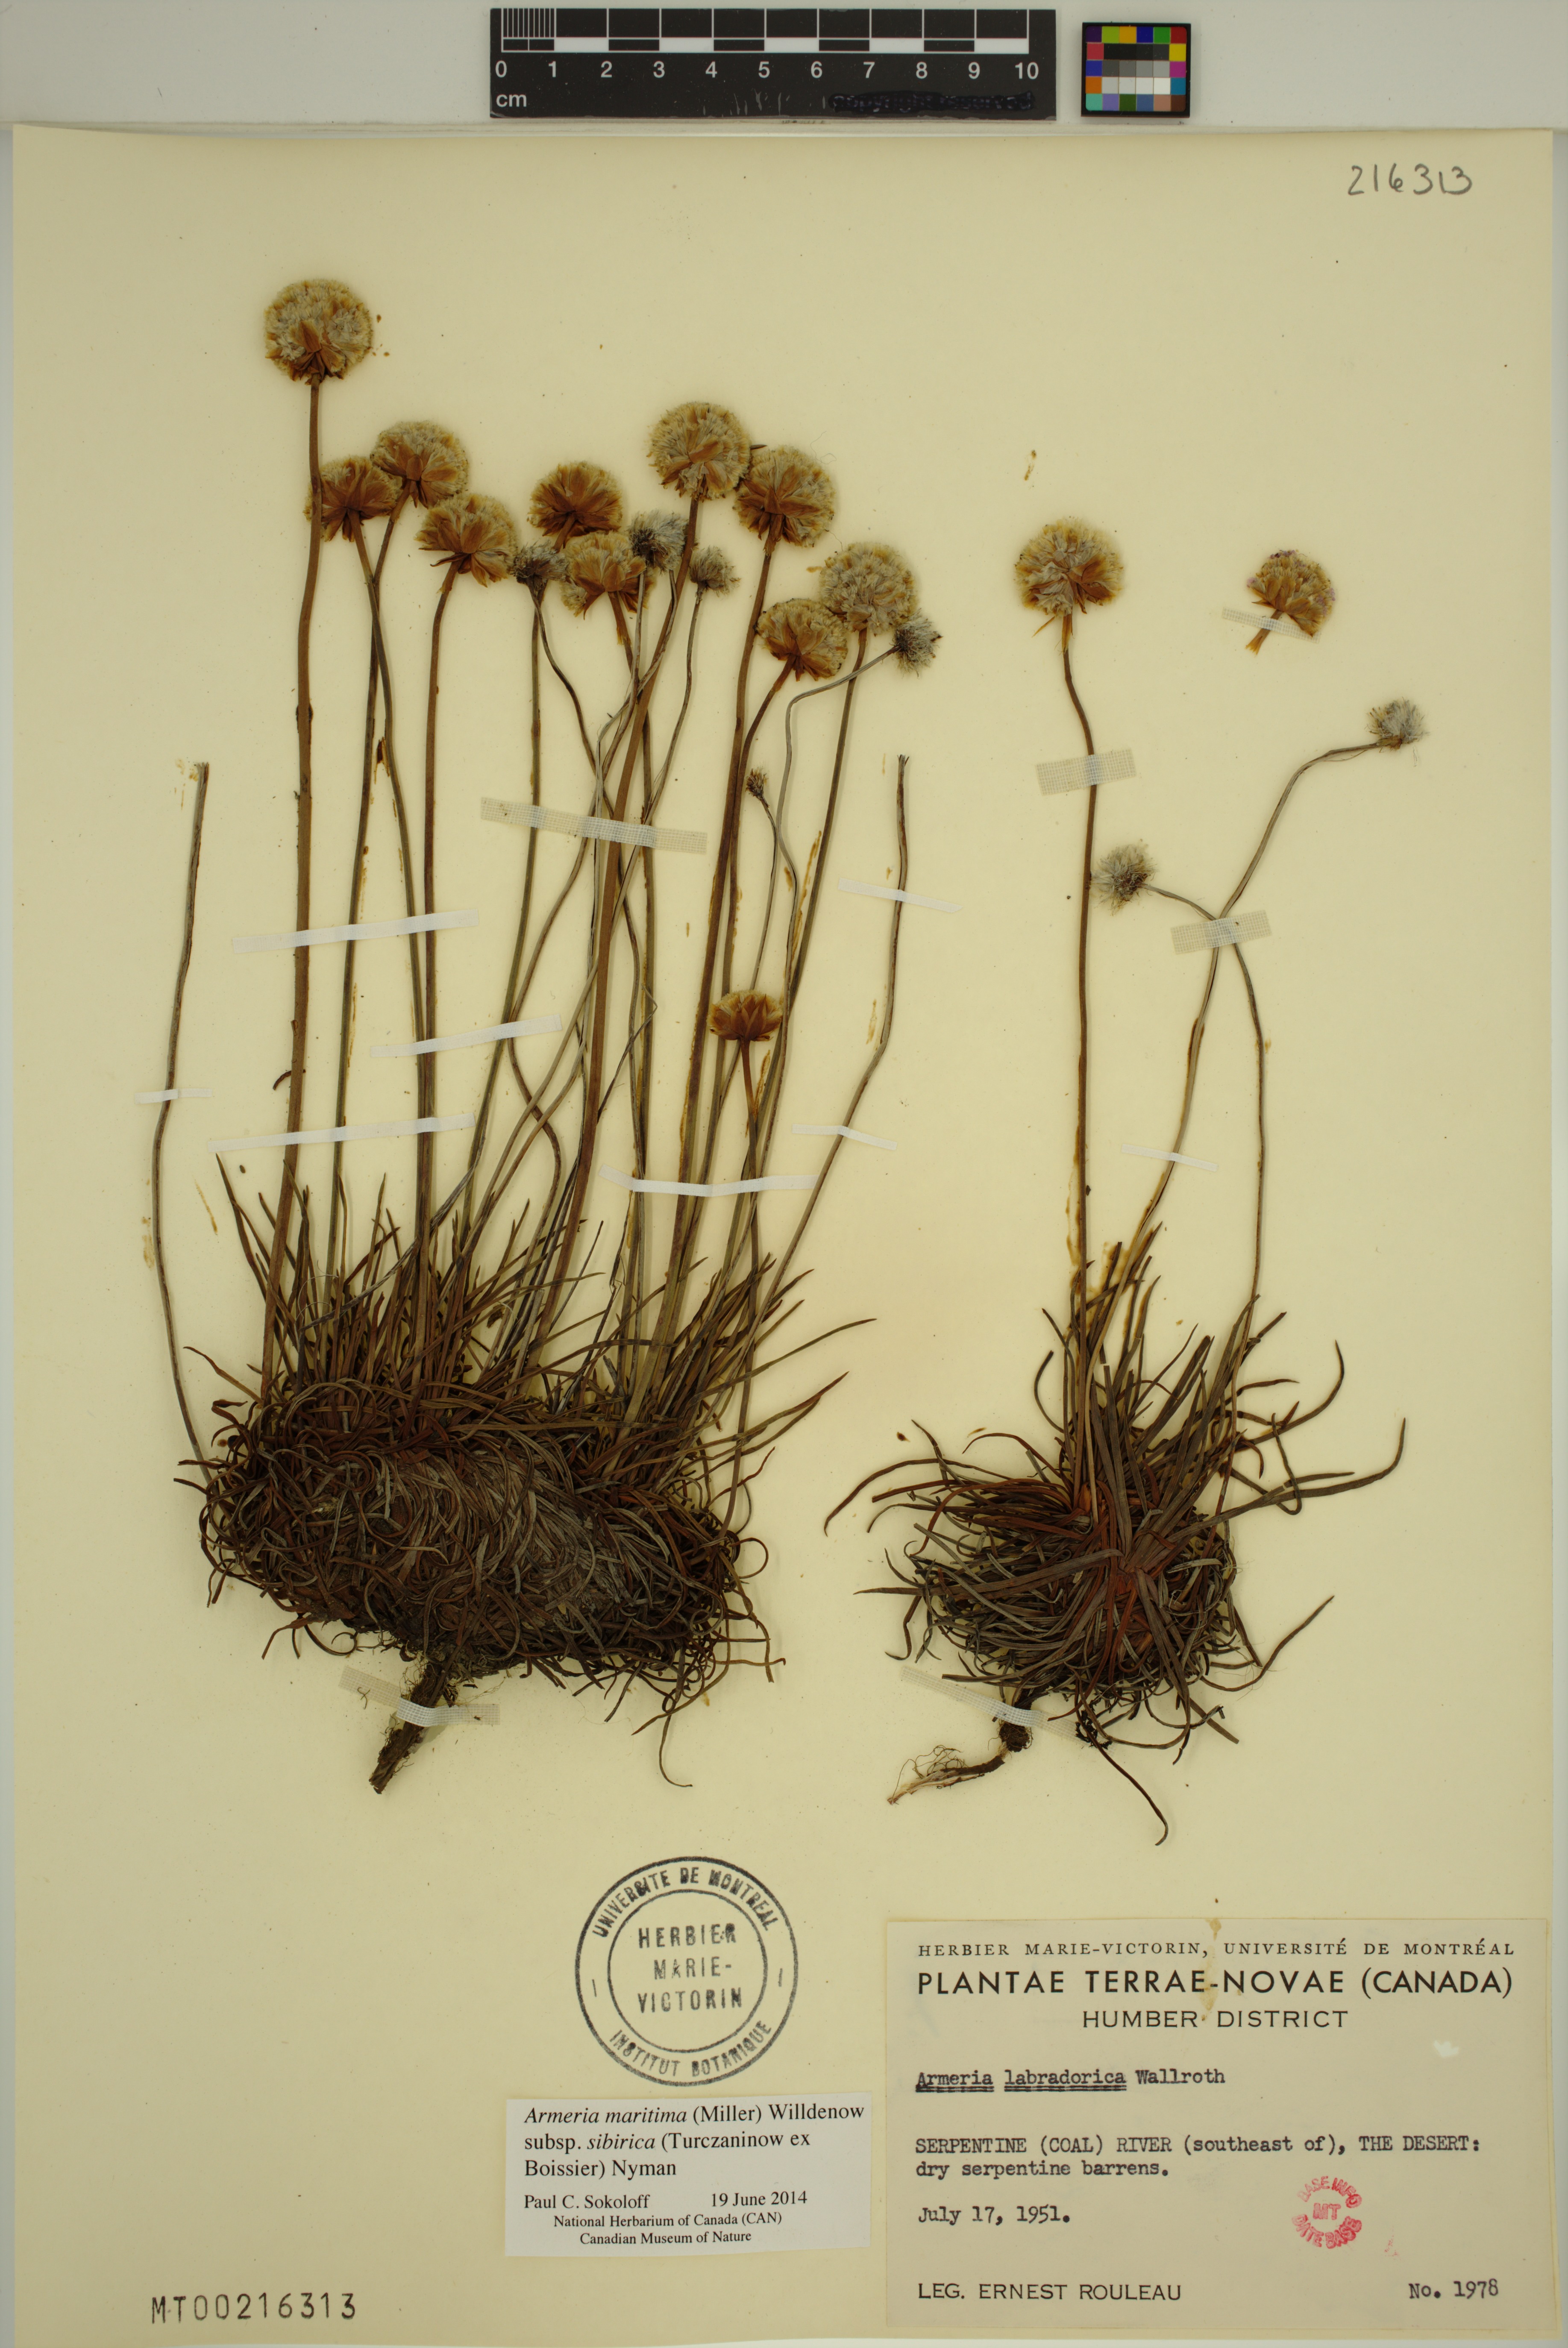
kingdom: Plantae
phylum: Tracheophyta
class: Magnoliopsida
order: Caryophyllales
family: Plumbaginaceae
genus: Armeria
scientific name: Armeria maritima
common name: Thrift
